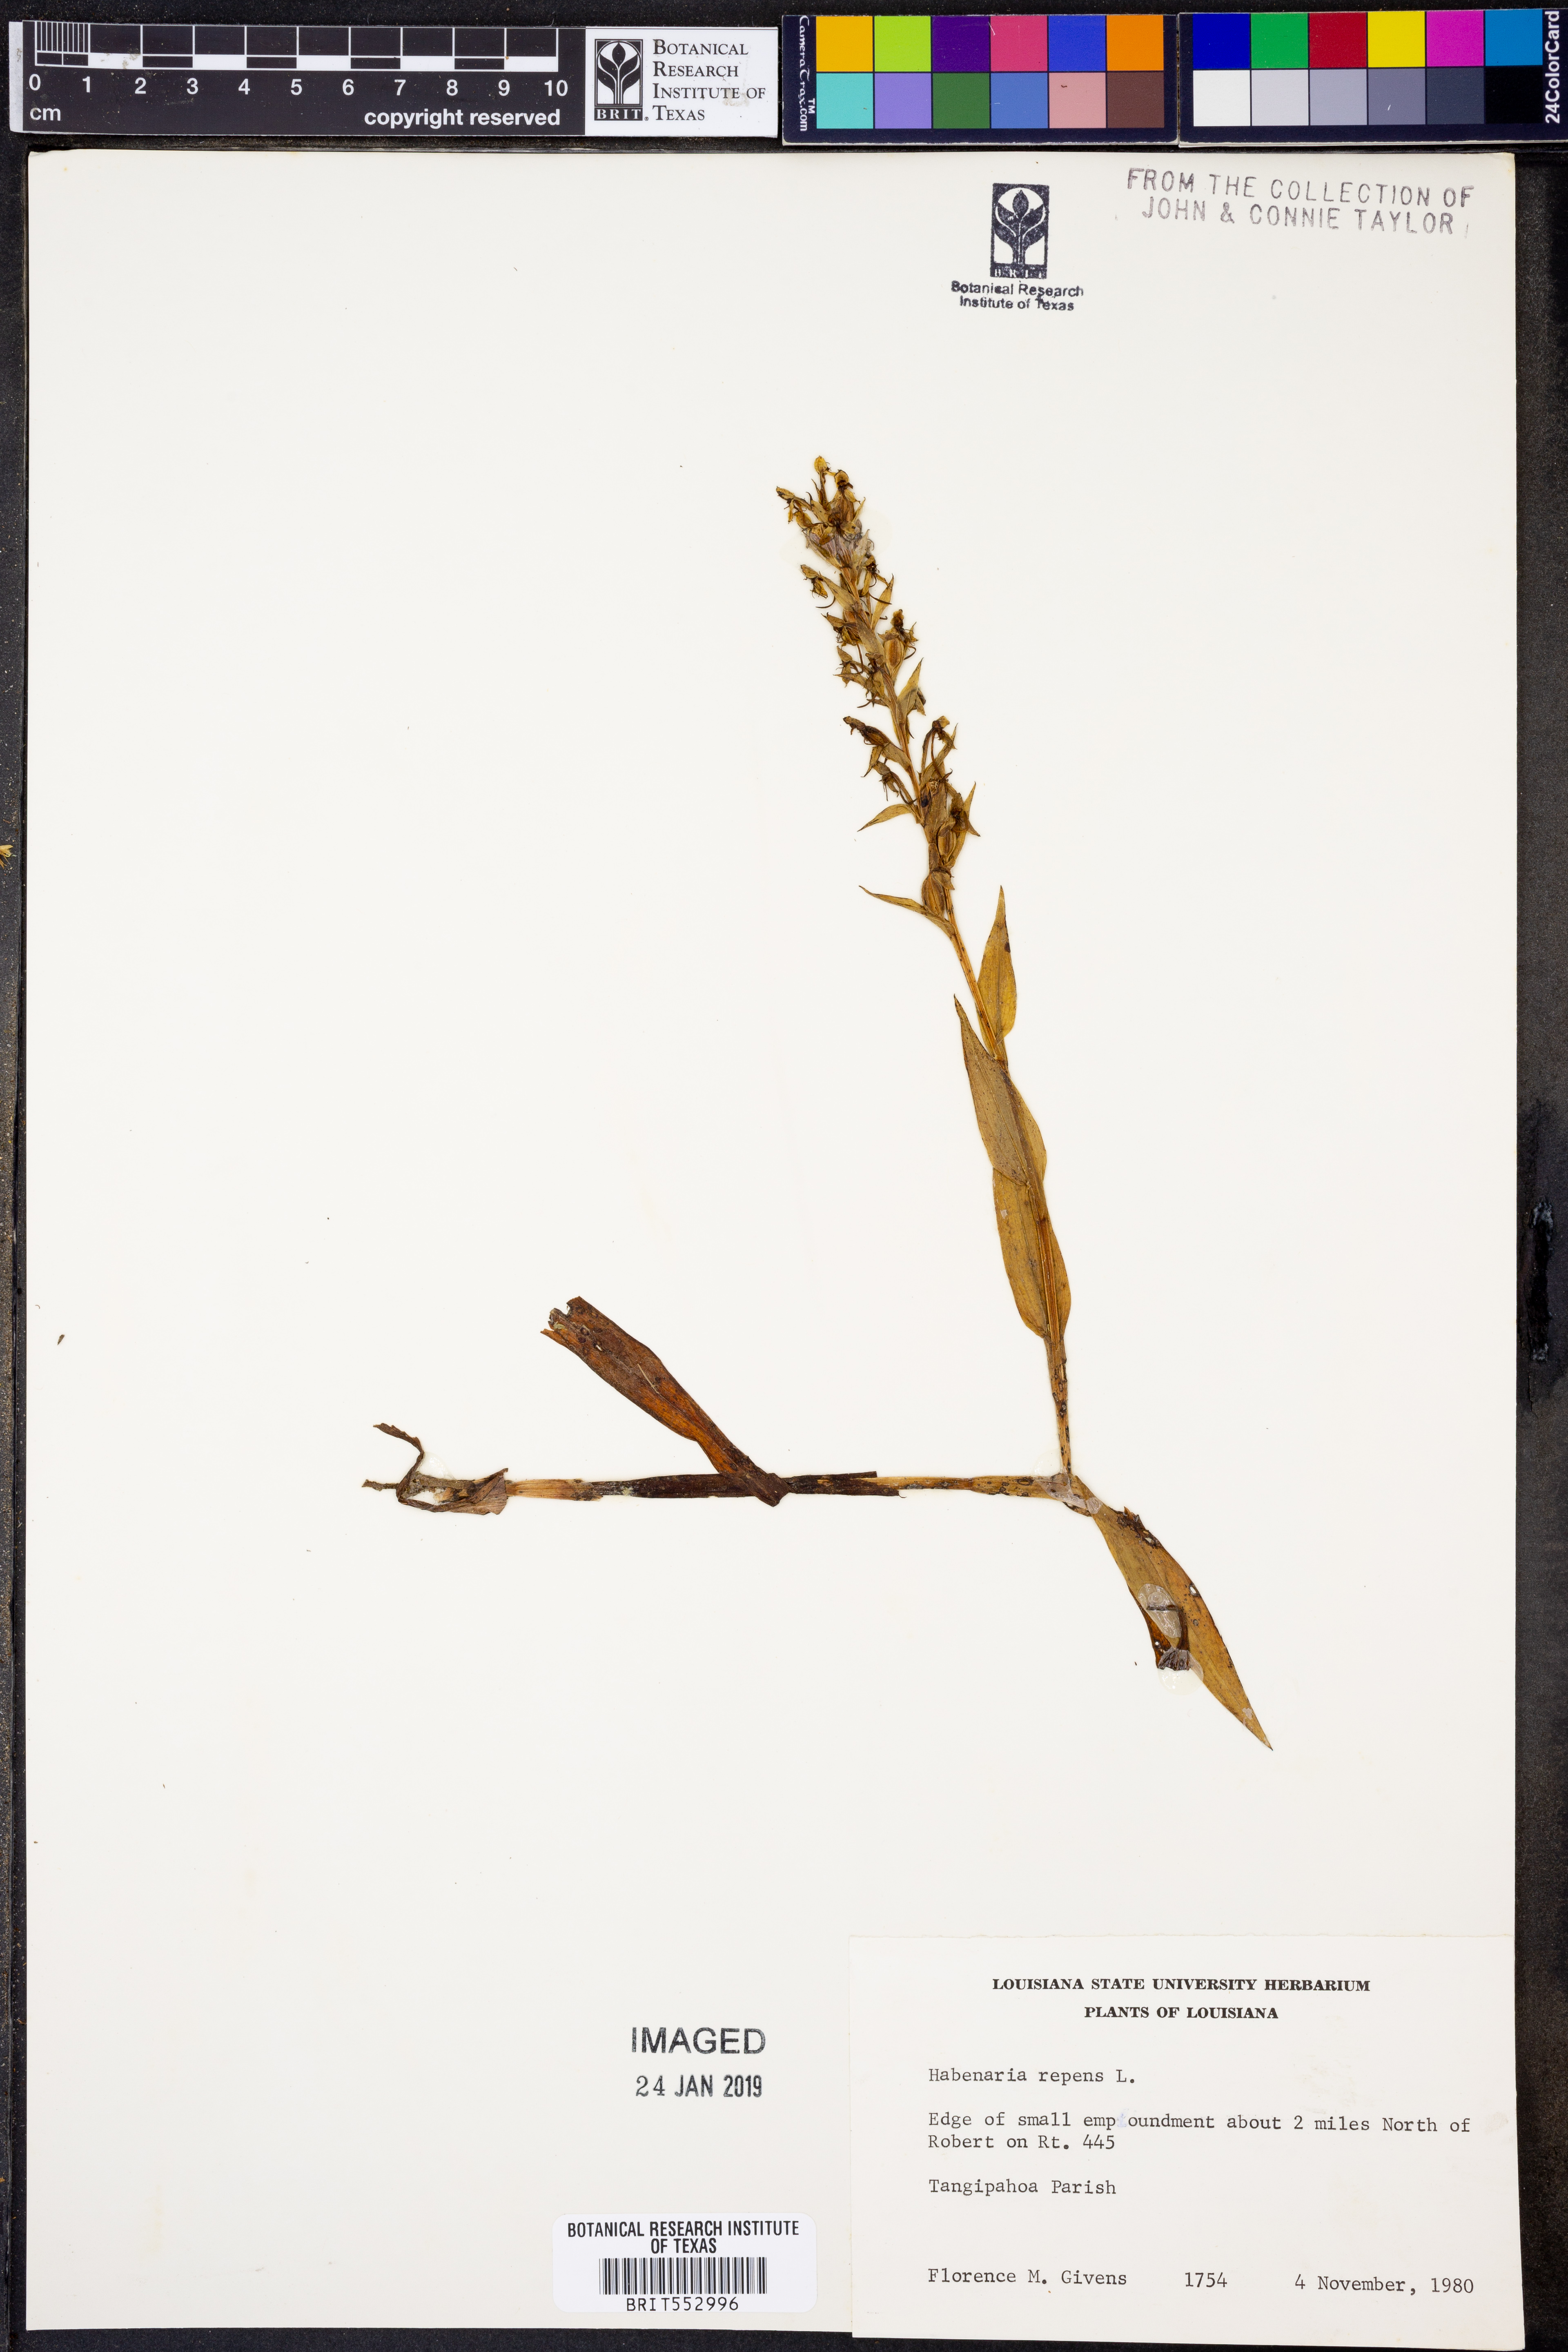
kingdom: Plantae
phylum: Tracheophyta
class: Liliopsida
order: Asparagales
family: Orchidaceae
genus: Habenaria
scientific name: Habenaria repens
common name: Water orchid
